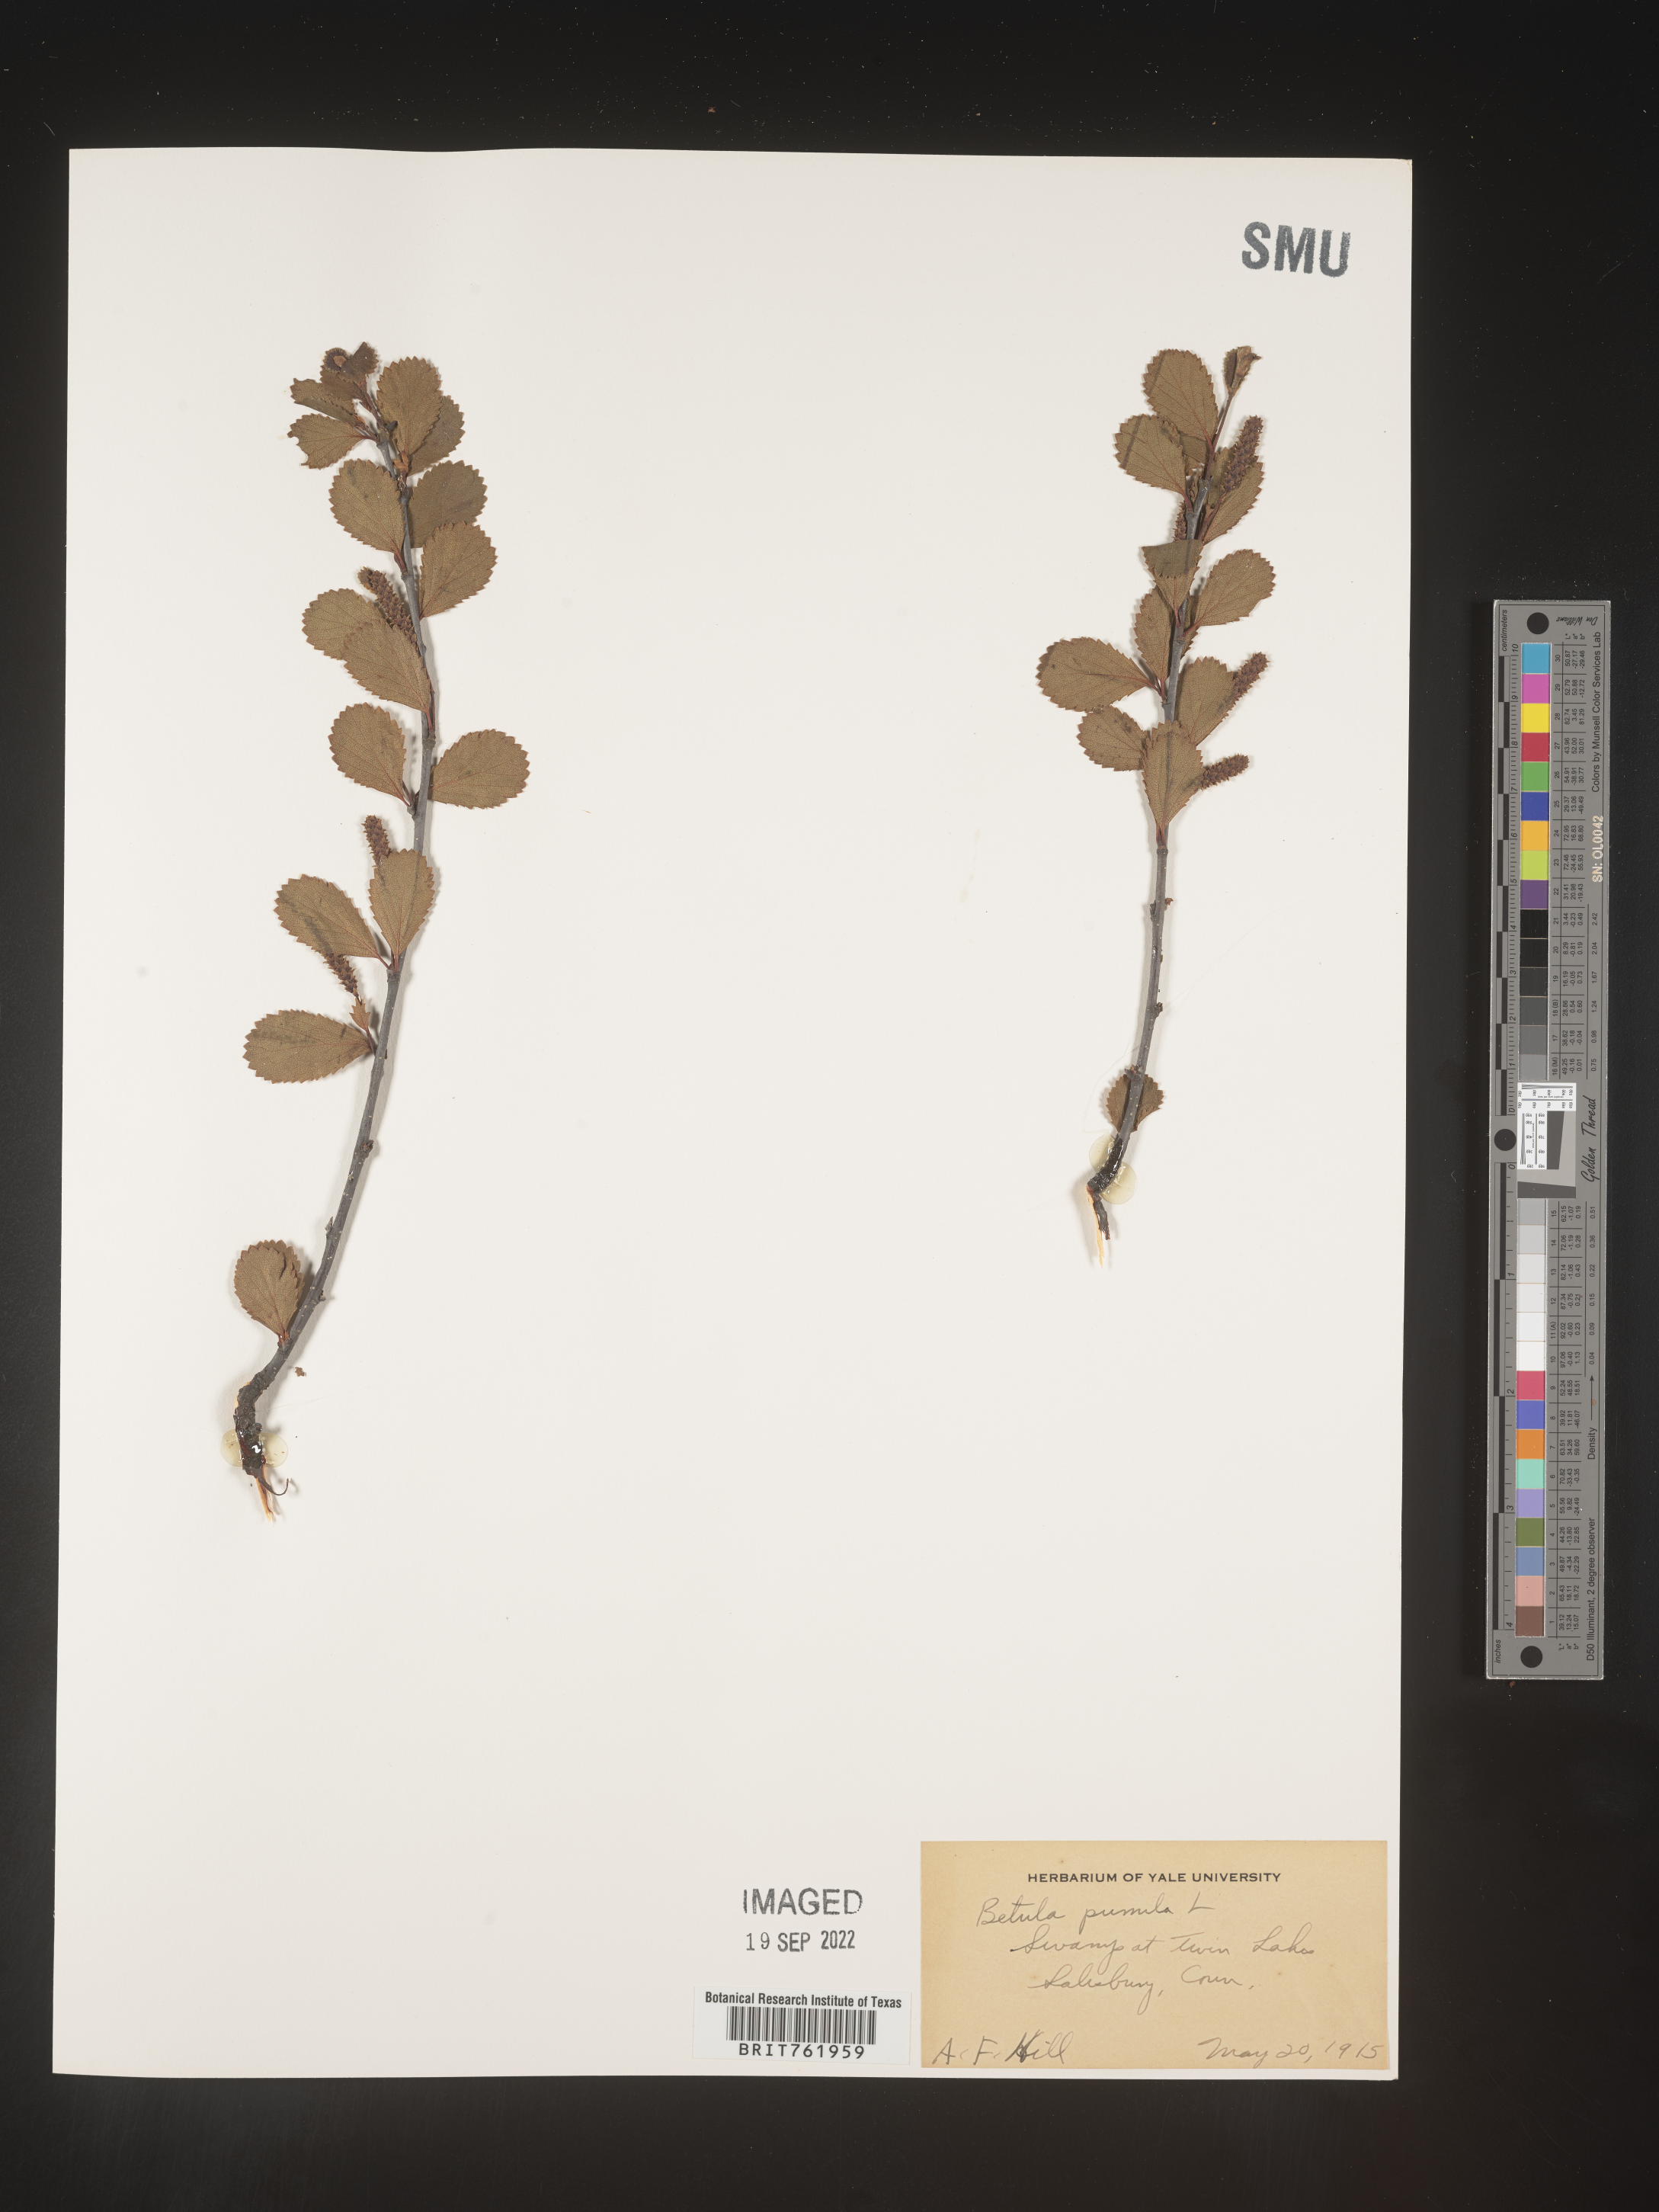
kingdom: Plantae
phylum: Tracheophyta
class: Magnoliopsida
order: Fagales
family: Betulaceae
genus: Betula
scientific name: Betula pumila
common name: Bog birch
